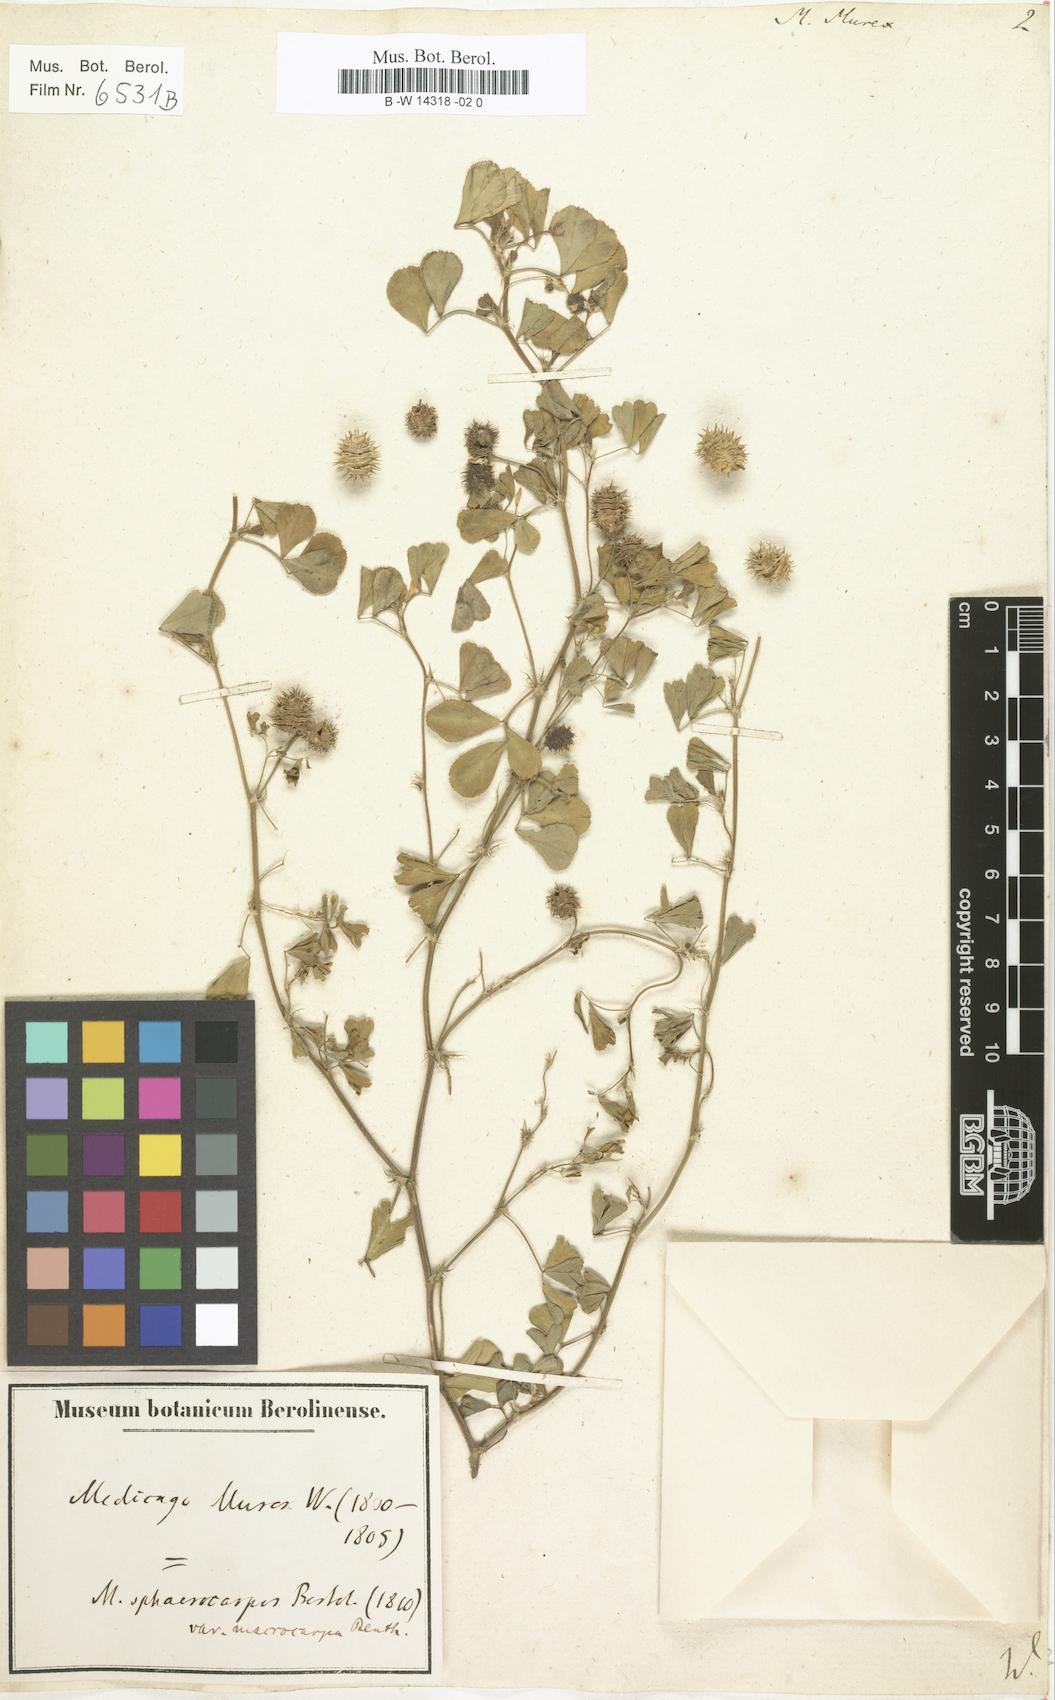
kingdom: Plantae
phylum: Tracheophyta
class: Magnoliopsida
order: Fabales
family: Fabaceae
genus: Medicago
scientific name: Medicago murex
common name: Murex
